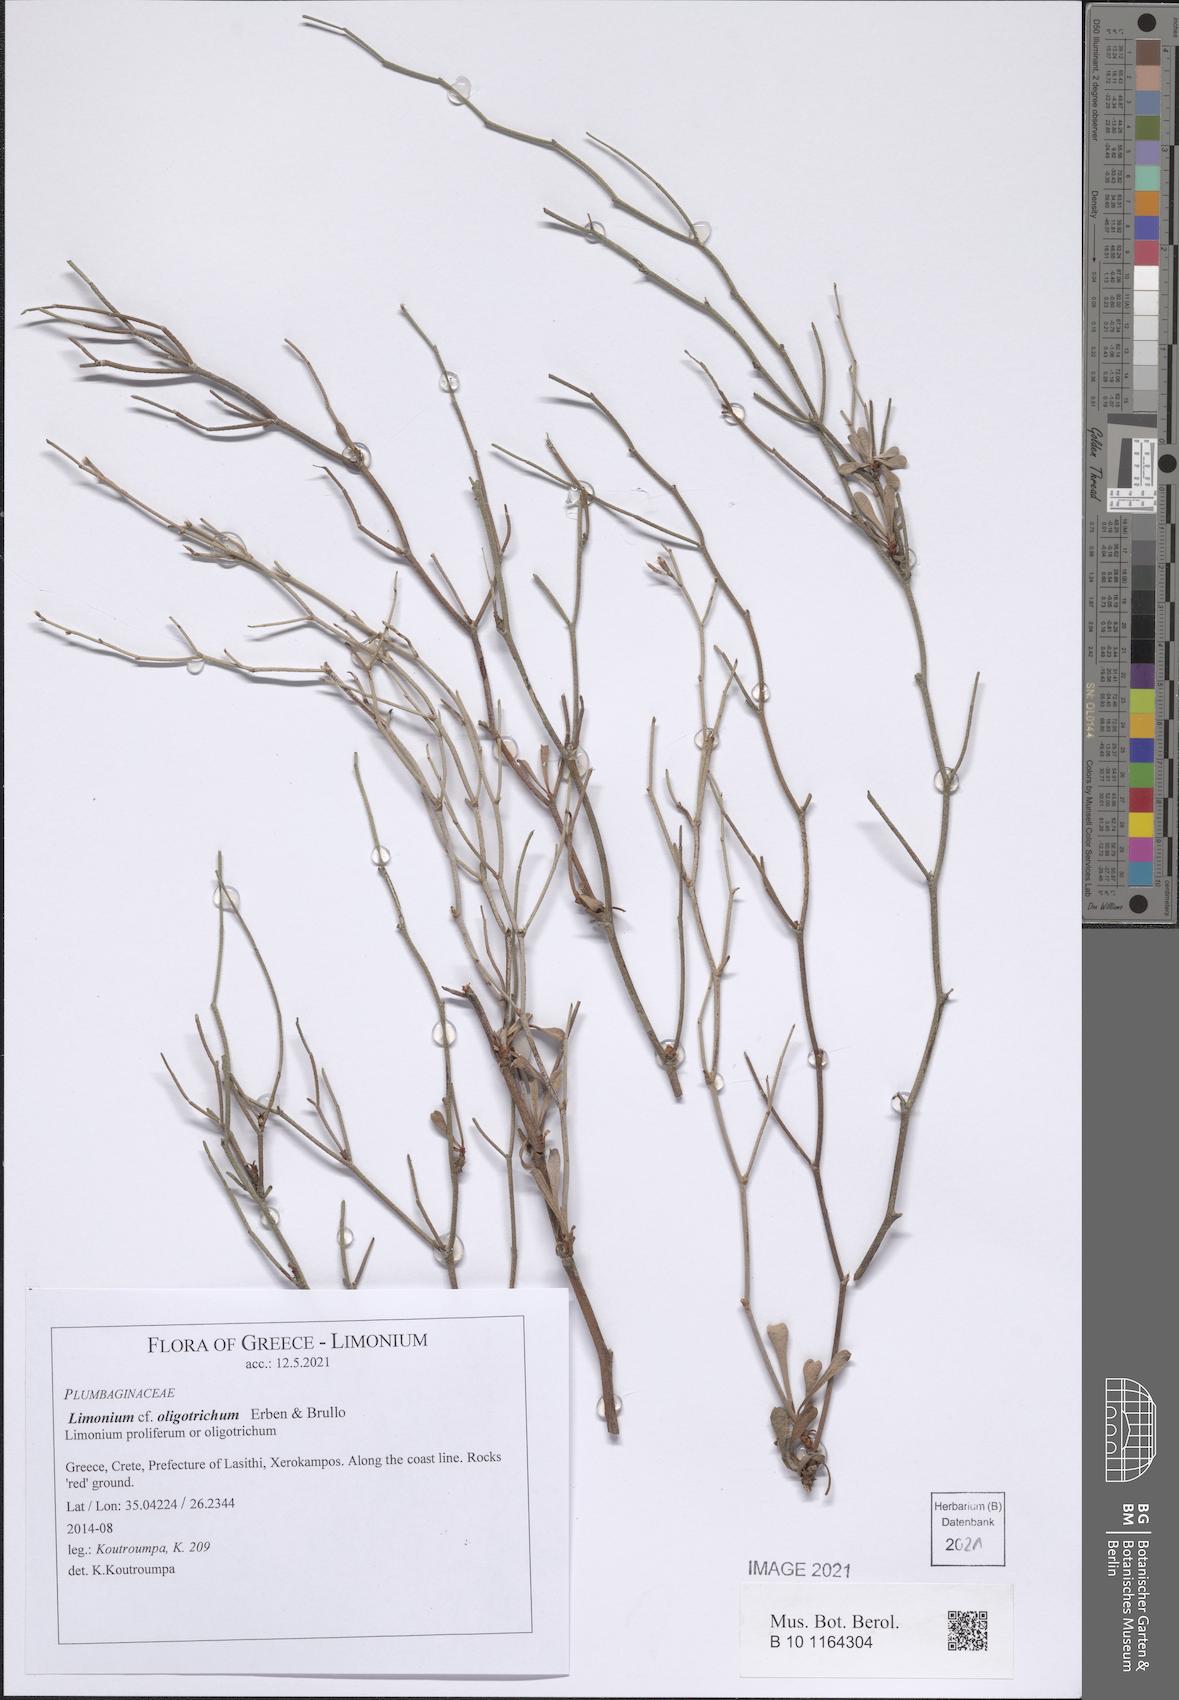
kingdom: Plantae
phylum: Tracheophyta
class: Magnoliopsida
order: Caryophyllales
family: Plumbaginaceae
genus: Limonium
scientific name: Limonium oligotrichum
